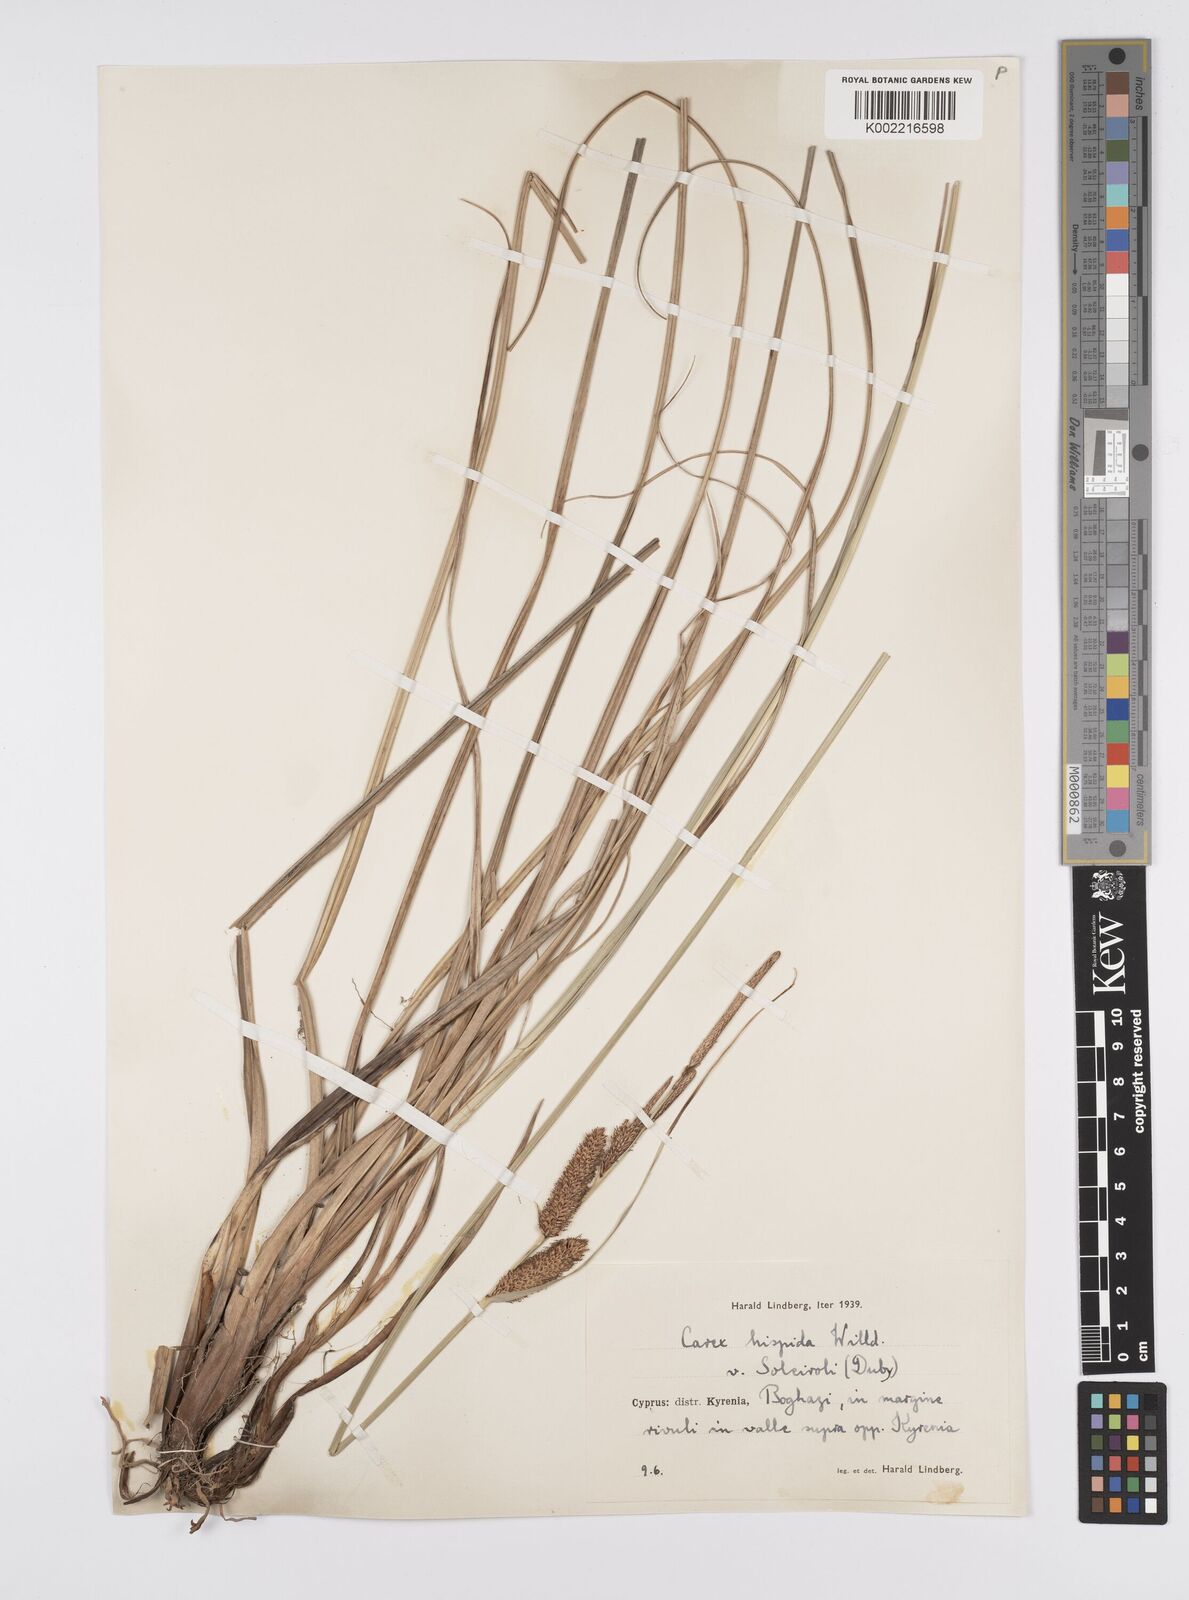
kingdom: Plantae
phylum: Tracheophyta
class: Liliopsida
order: Poales
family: Cyperaceae
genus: Carex
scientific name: Carex hispida
